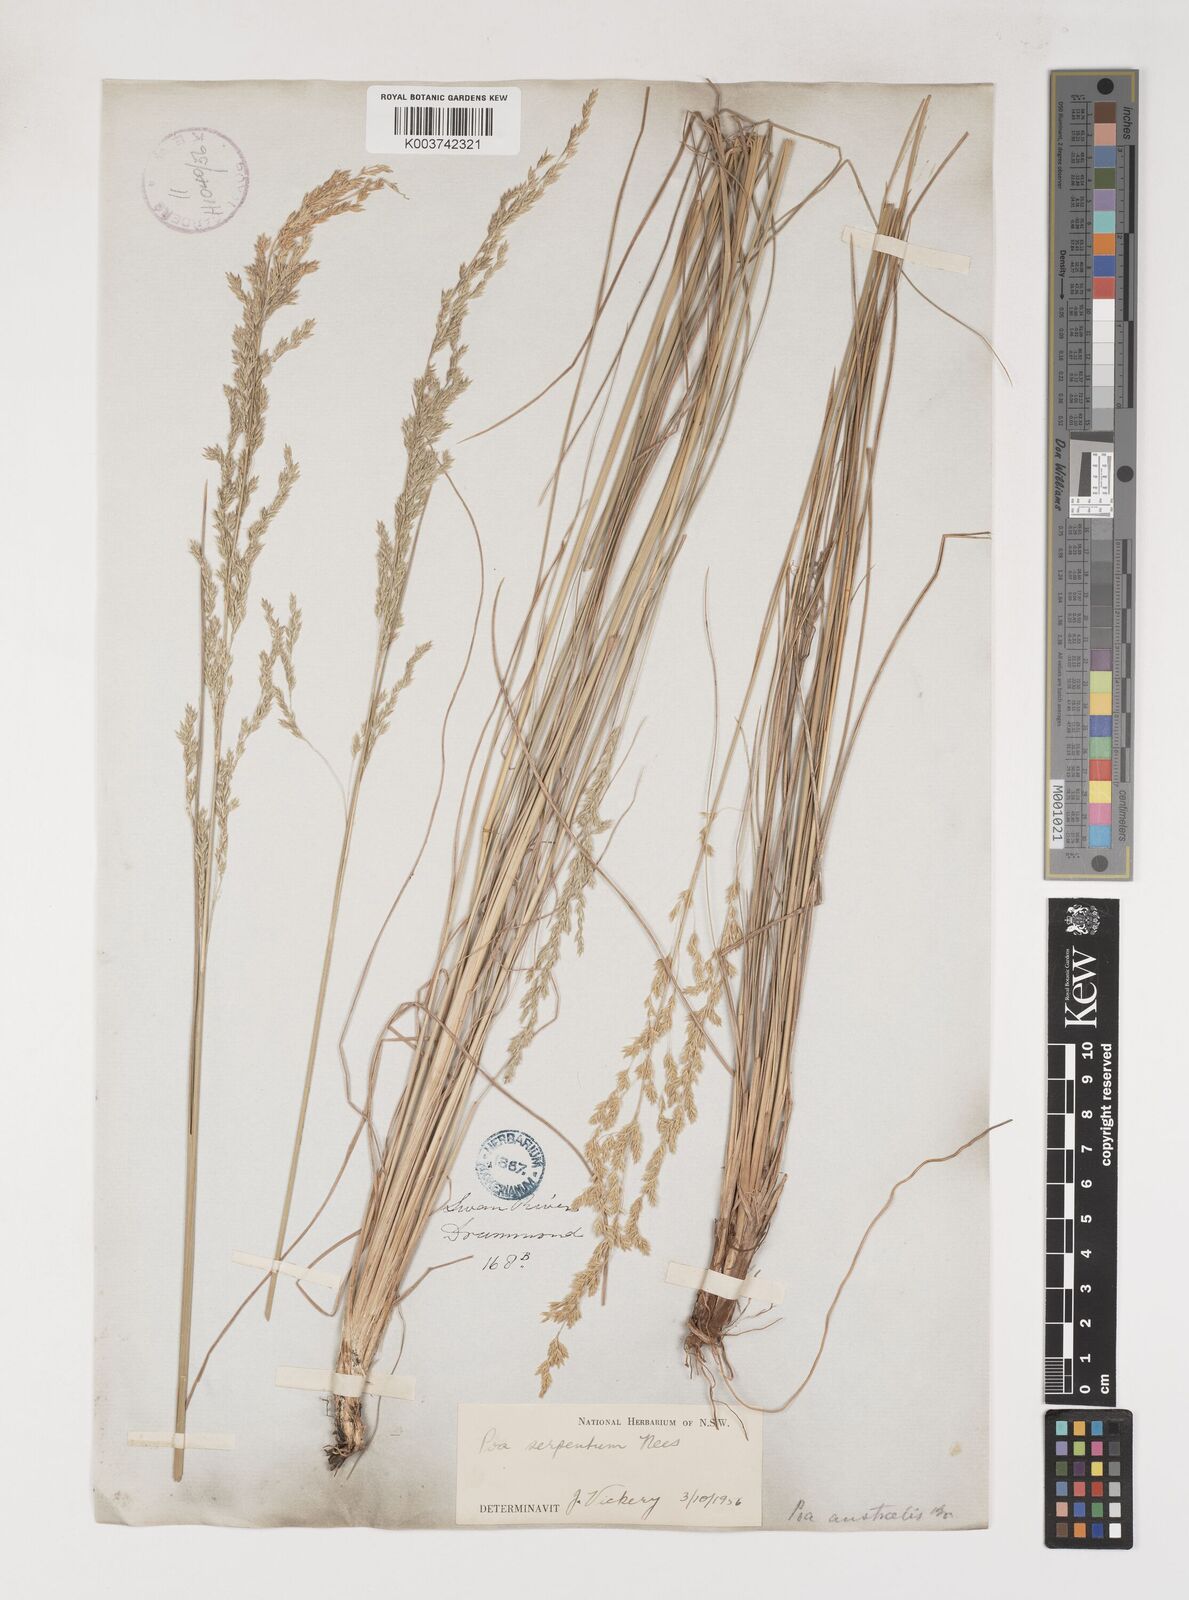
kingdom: Plantae
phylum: Tracheophyta
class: Liliopsida
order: Poales
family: Poaceae
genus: Poa
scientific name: Poa porphyroclados
